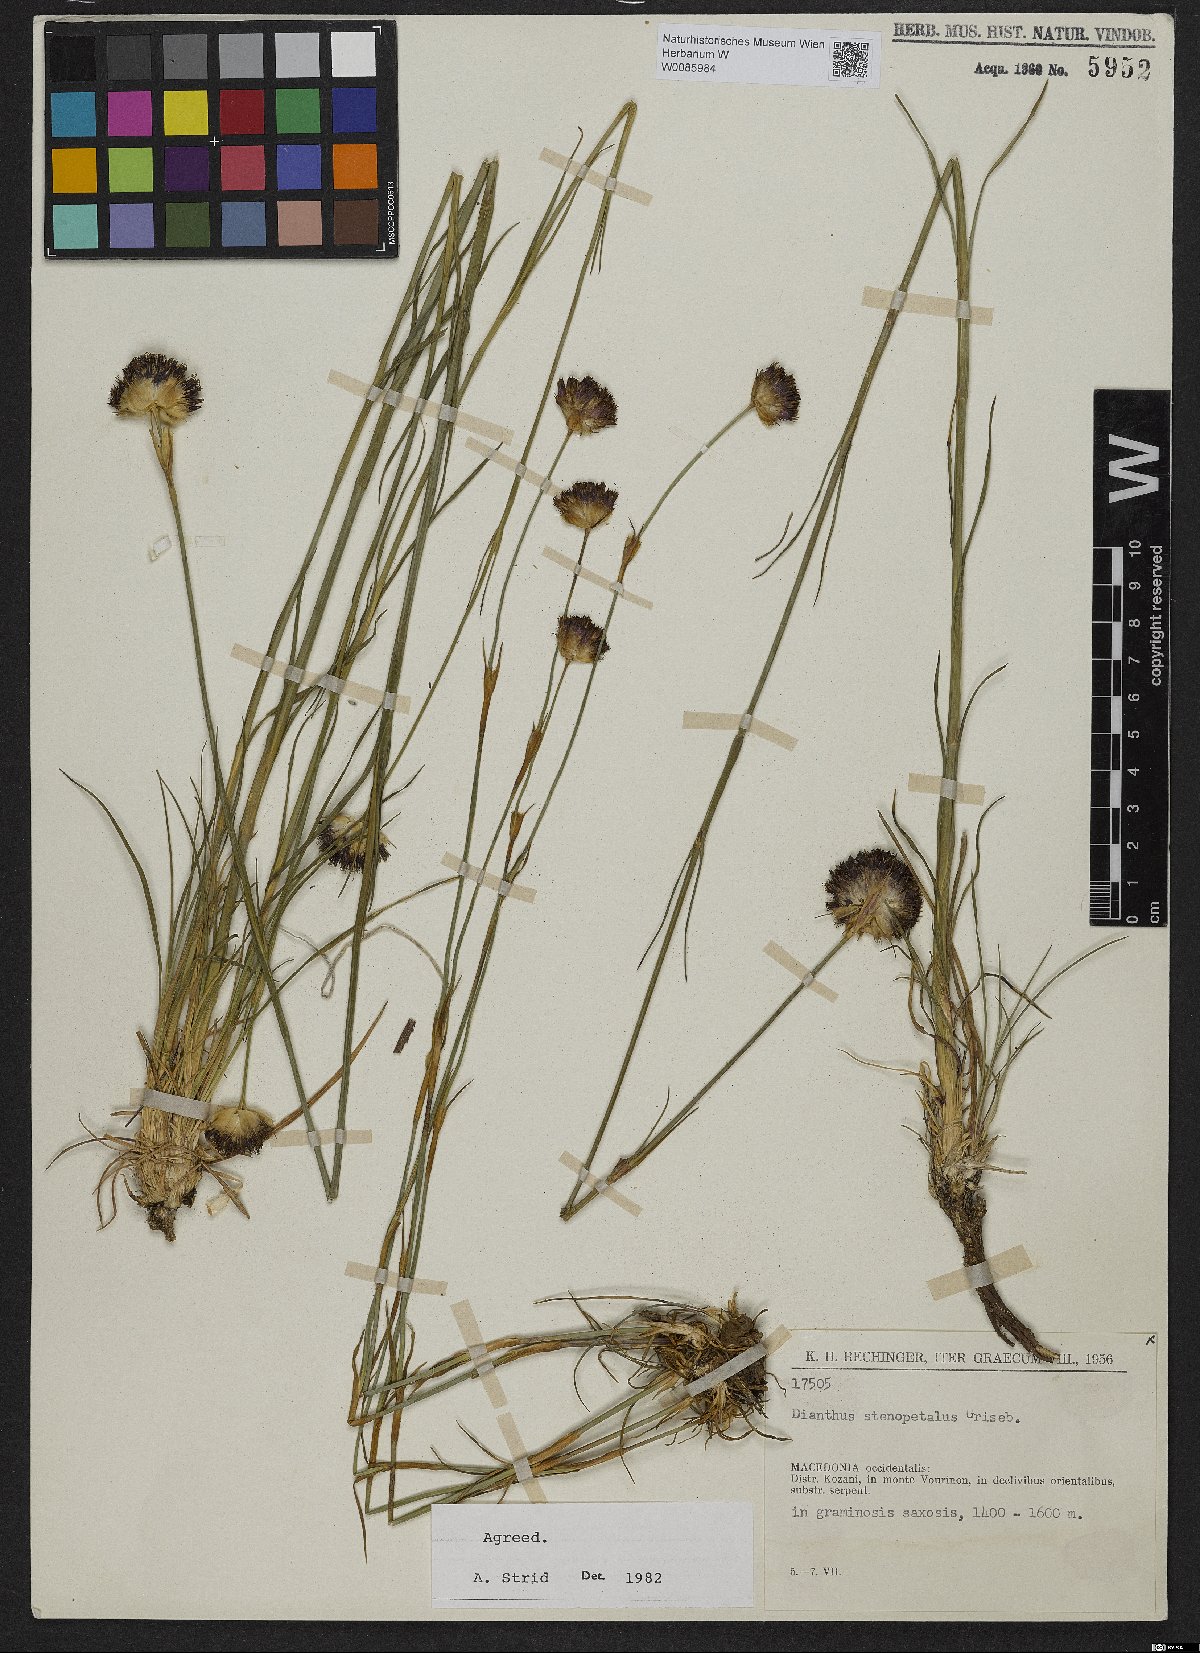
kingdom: Plantae
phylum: Tracheophyta
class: Magnoliopsida
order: Caryophyllales
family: Caryophyllaceae
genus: Dianthus
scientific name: Dianthus stenopetalus
